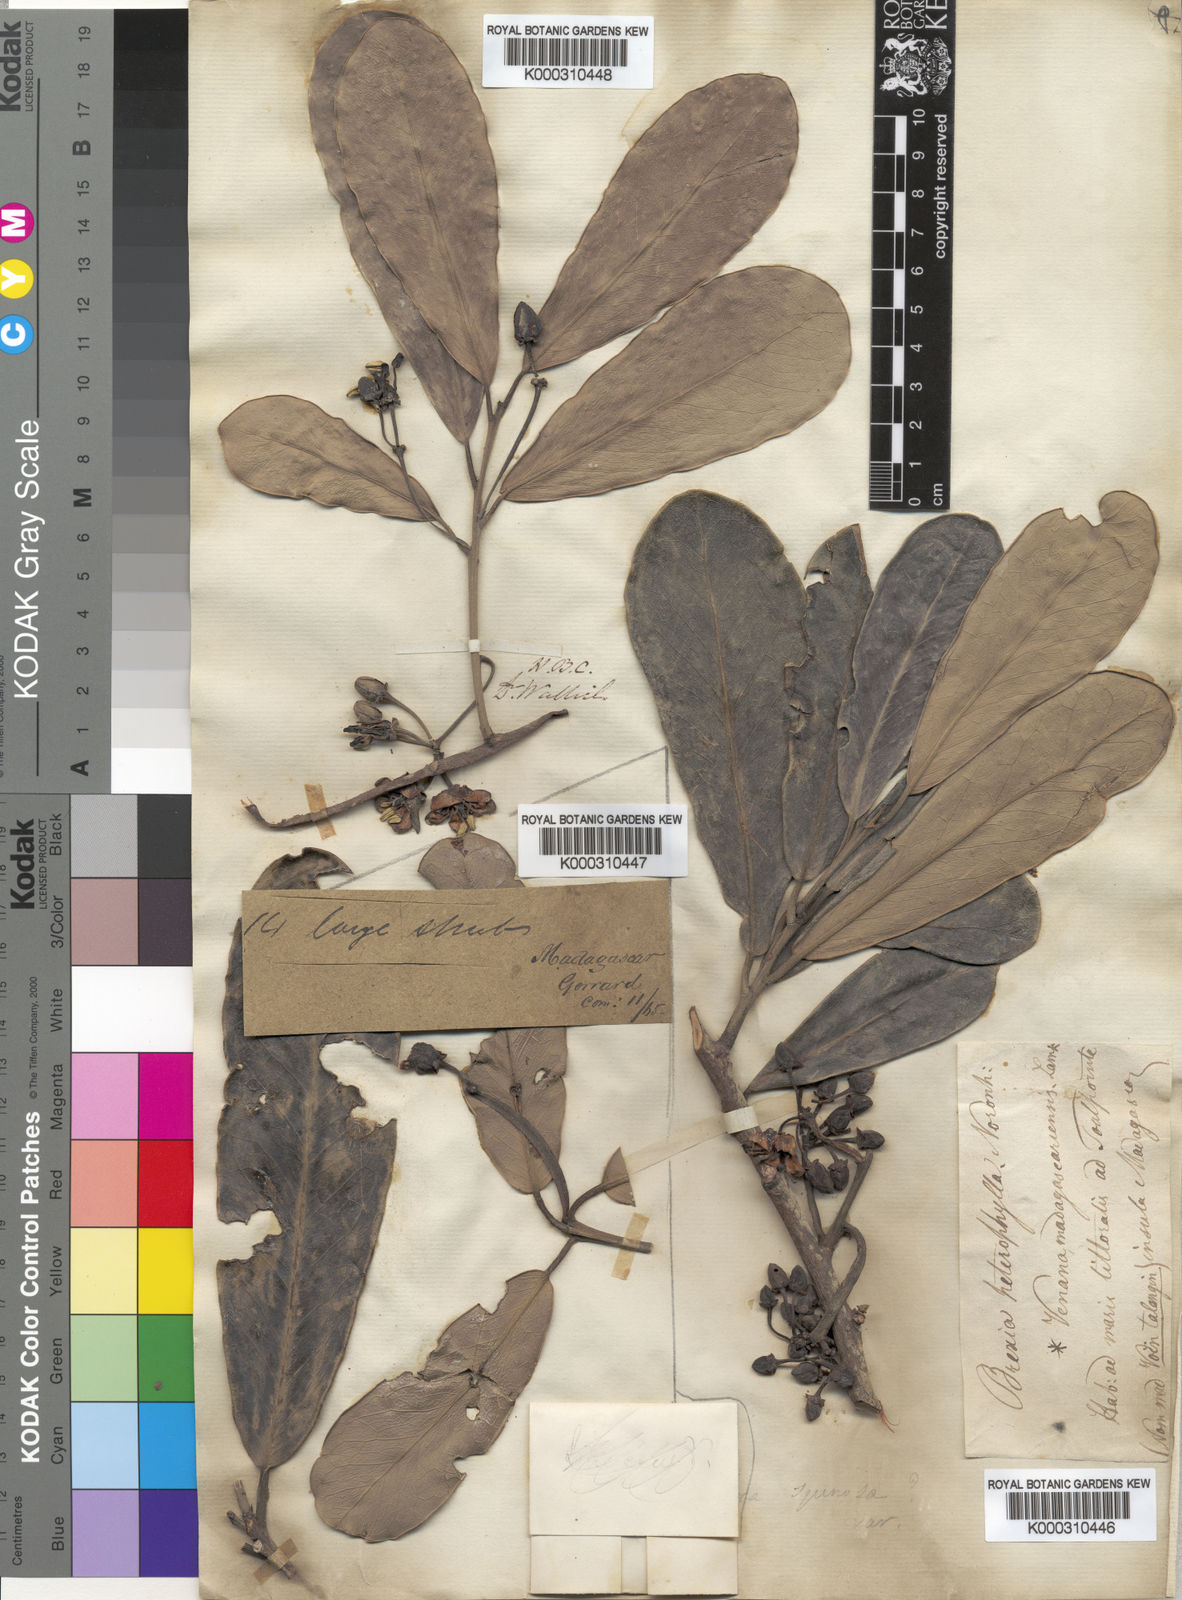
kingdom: Plantae
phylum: Tracheophyta
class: Magnoliopsida
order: Celastrales
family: Celastraceae
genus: Brexia
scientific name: Brexia madagascariensis
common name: Brexia
